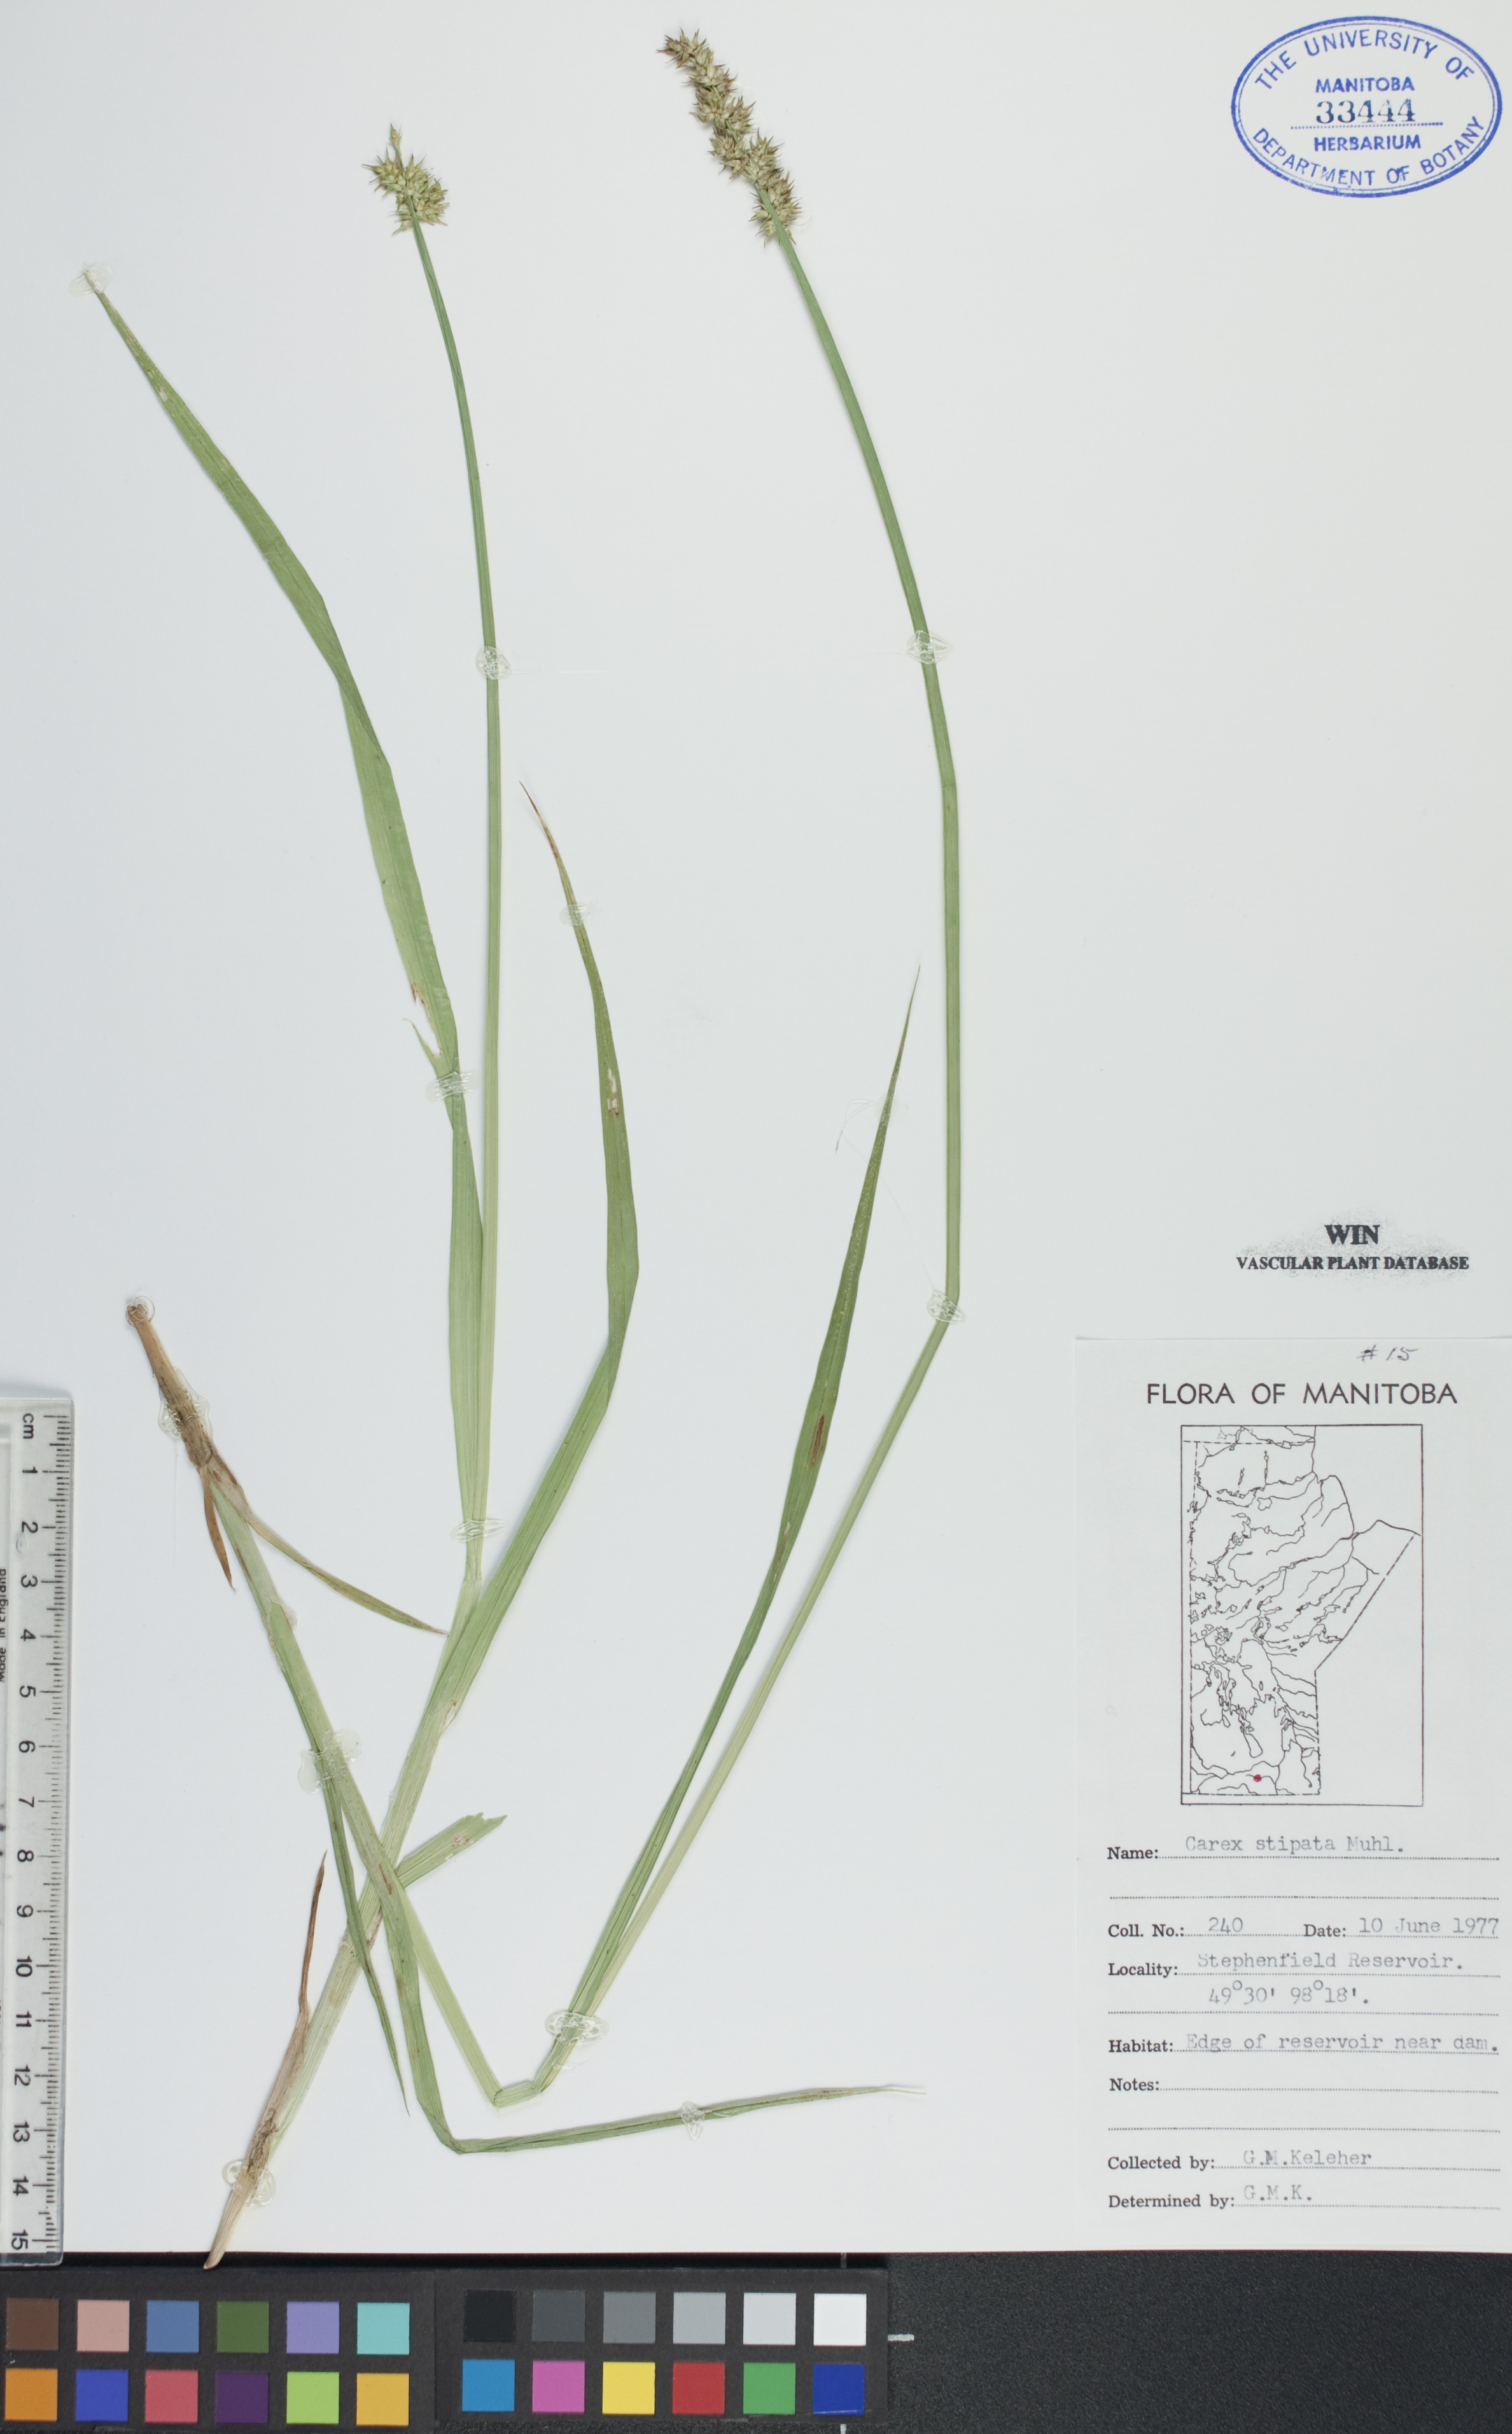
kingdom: Plantae
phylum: Tracheophyta
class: Liliopsida
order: Poales
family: Cyperaceae
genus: Carex
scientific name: Carex stipata
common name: Awl-fruited sedge
